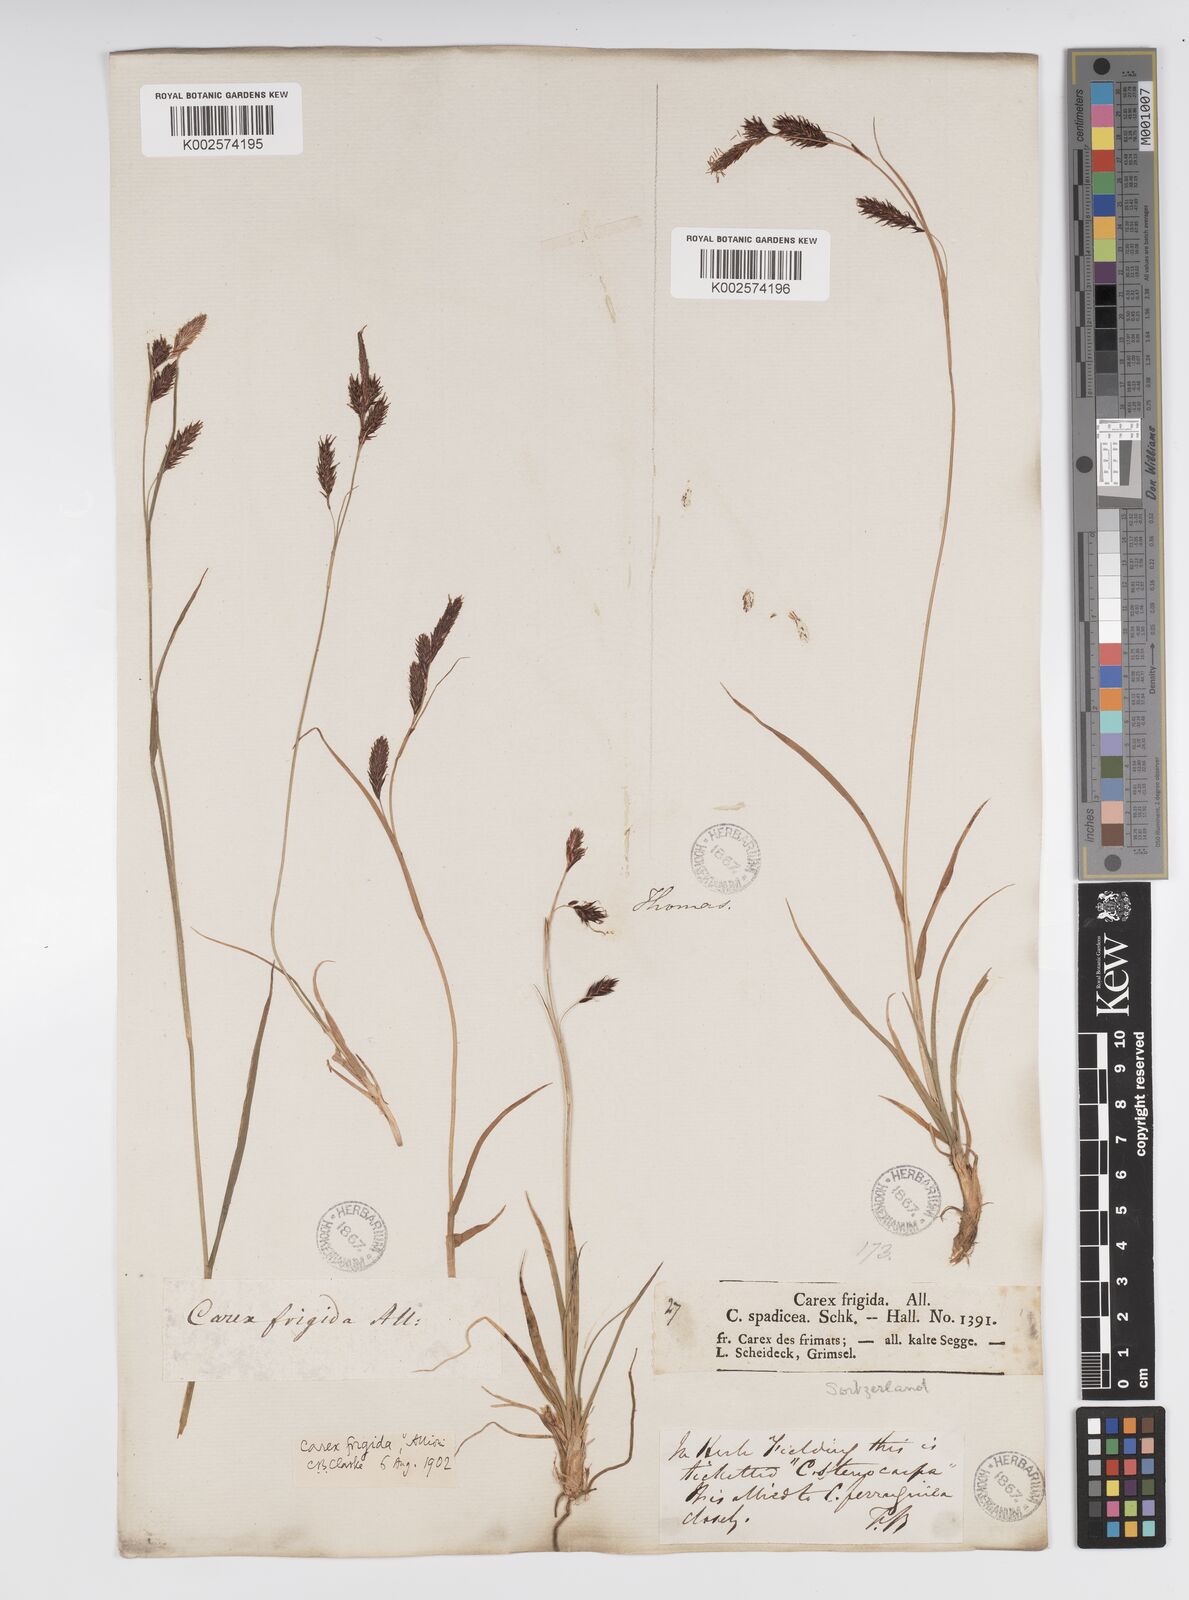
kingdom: Plantae
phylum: Tracheophyta
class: Liliopsida
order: Poales
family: Cyperaceae
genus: Carex
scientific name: Carex frigida
